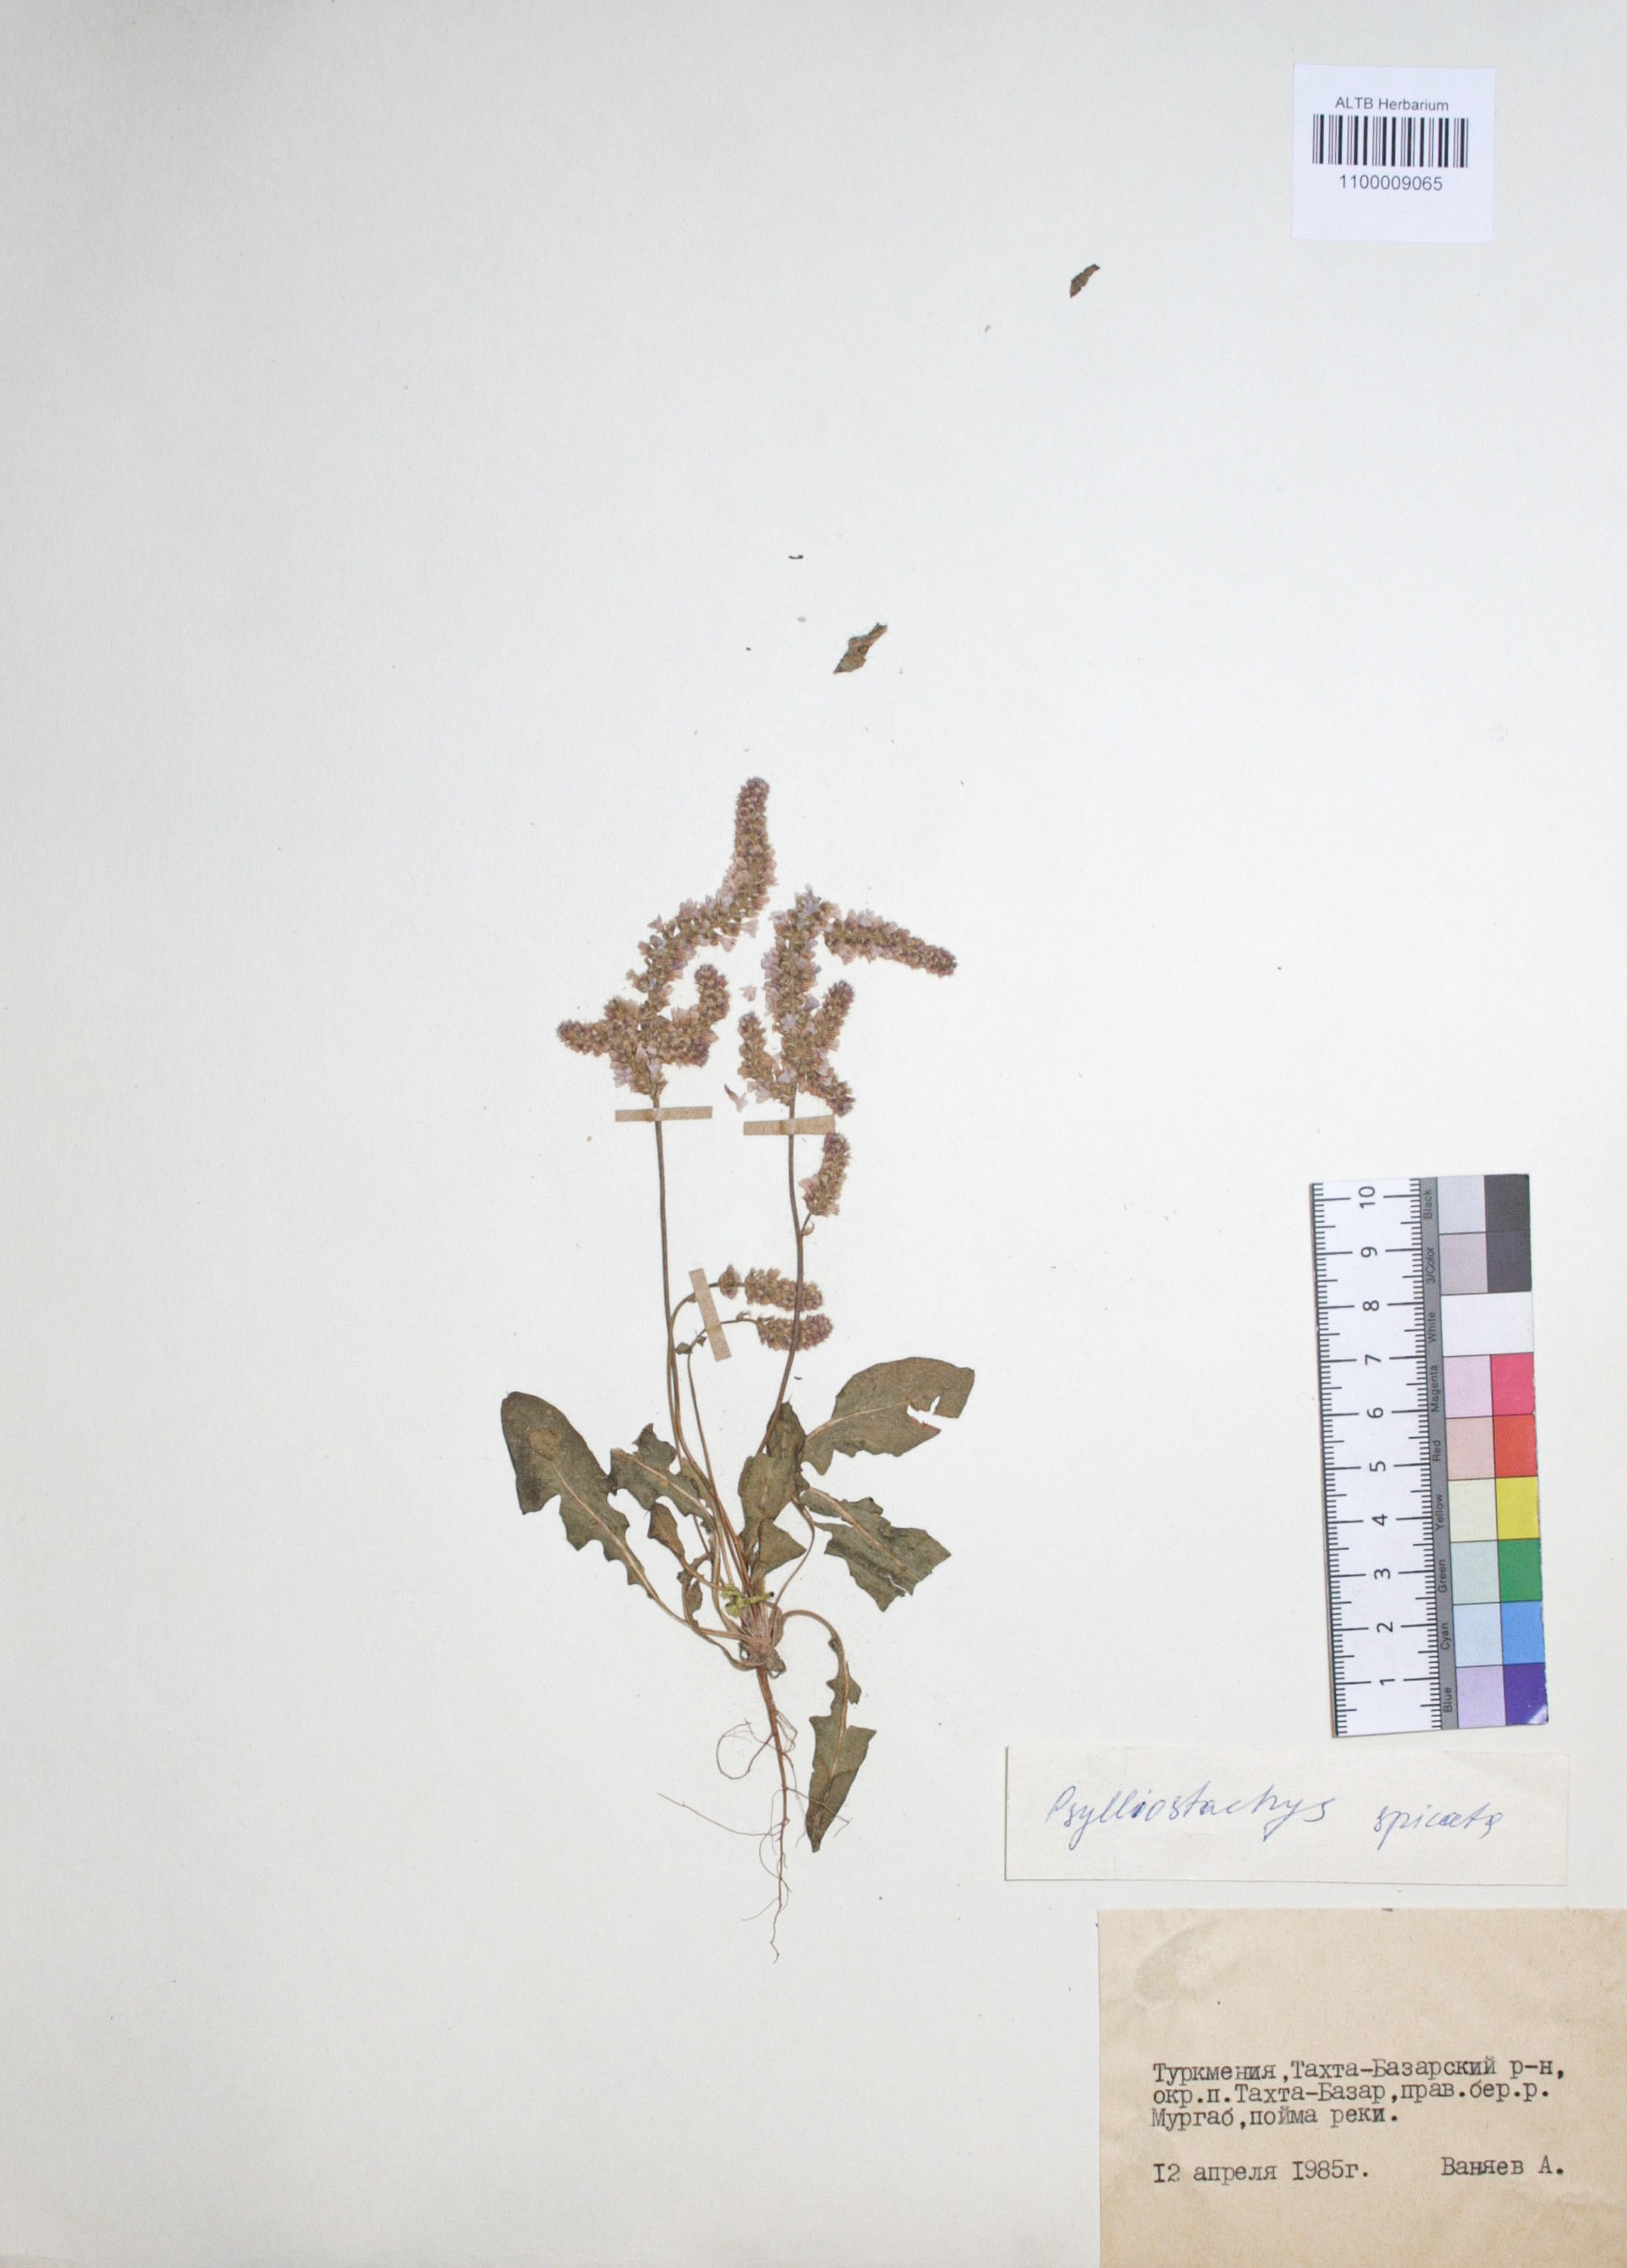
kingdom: Plantae
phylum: Tracheophyta
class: Magnoliopsida
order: Caryophyllales
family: Plumbaginaceae
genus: Psylliostachys
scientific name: Psylliostachys spicatus
